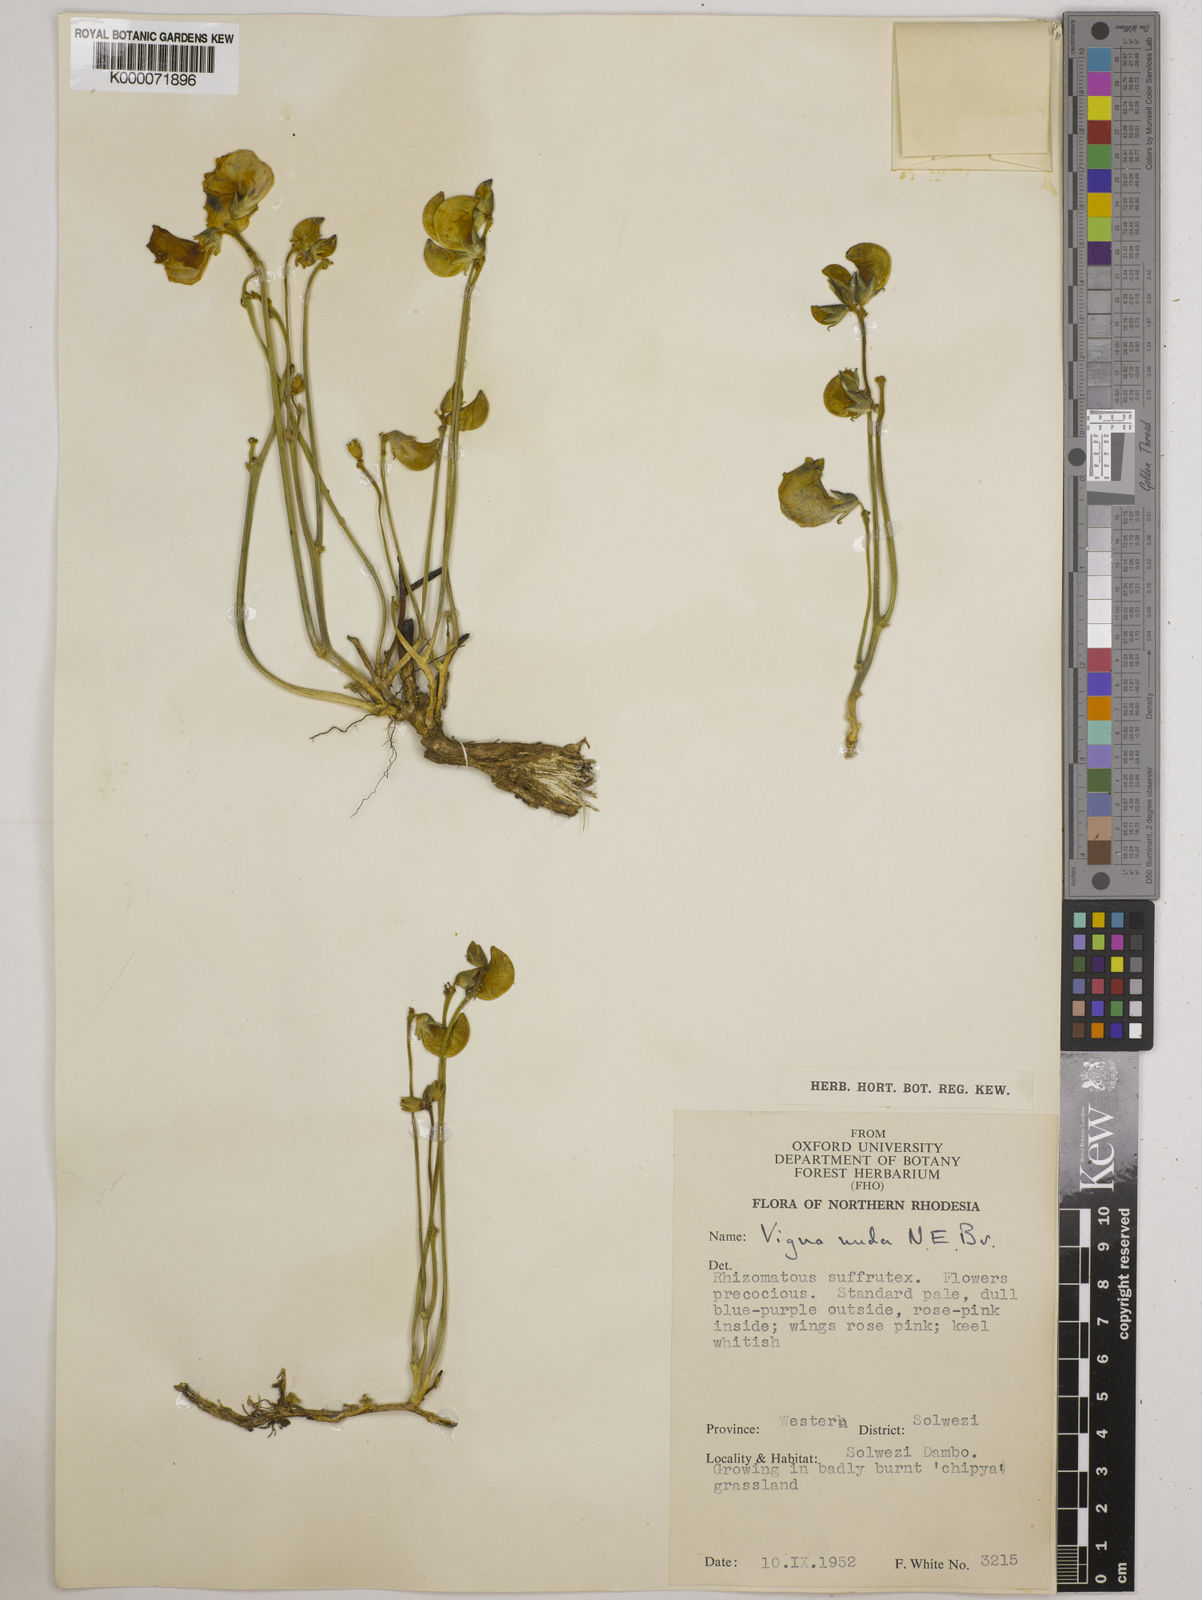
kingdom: Plantae
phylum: Tracheophyta
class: Magnoliopsida
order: Fabales
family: Fabaceae
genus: Vigna
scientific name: Vigna antunesii
